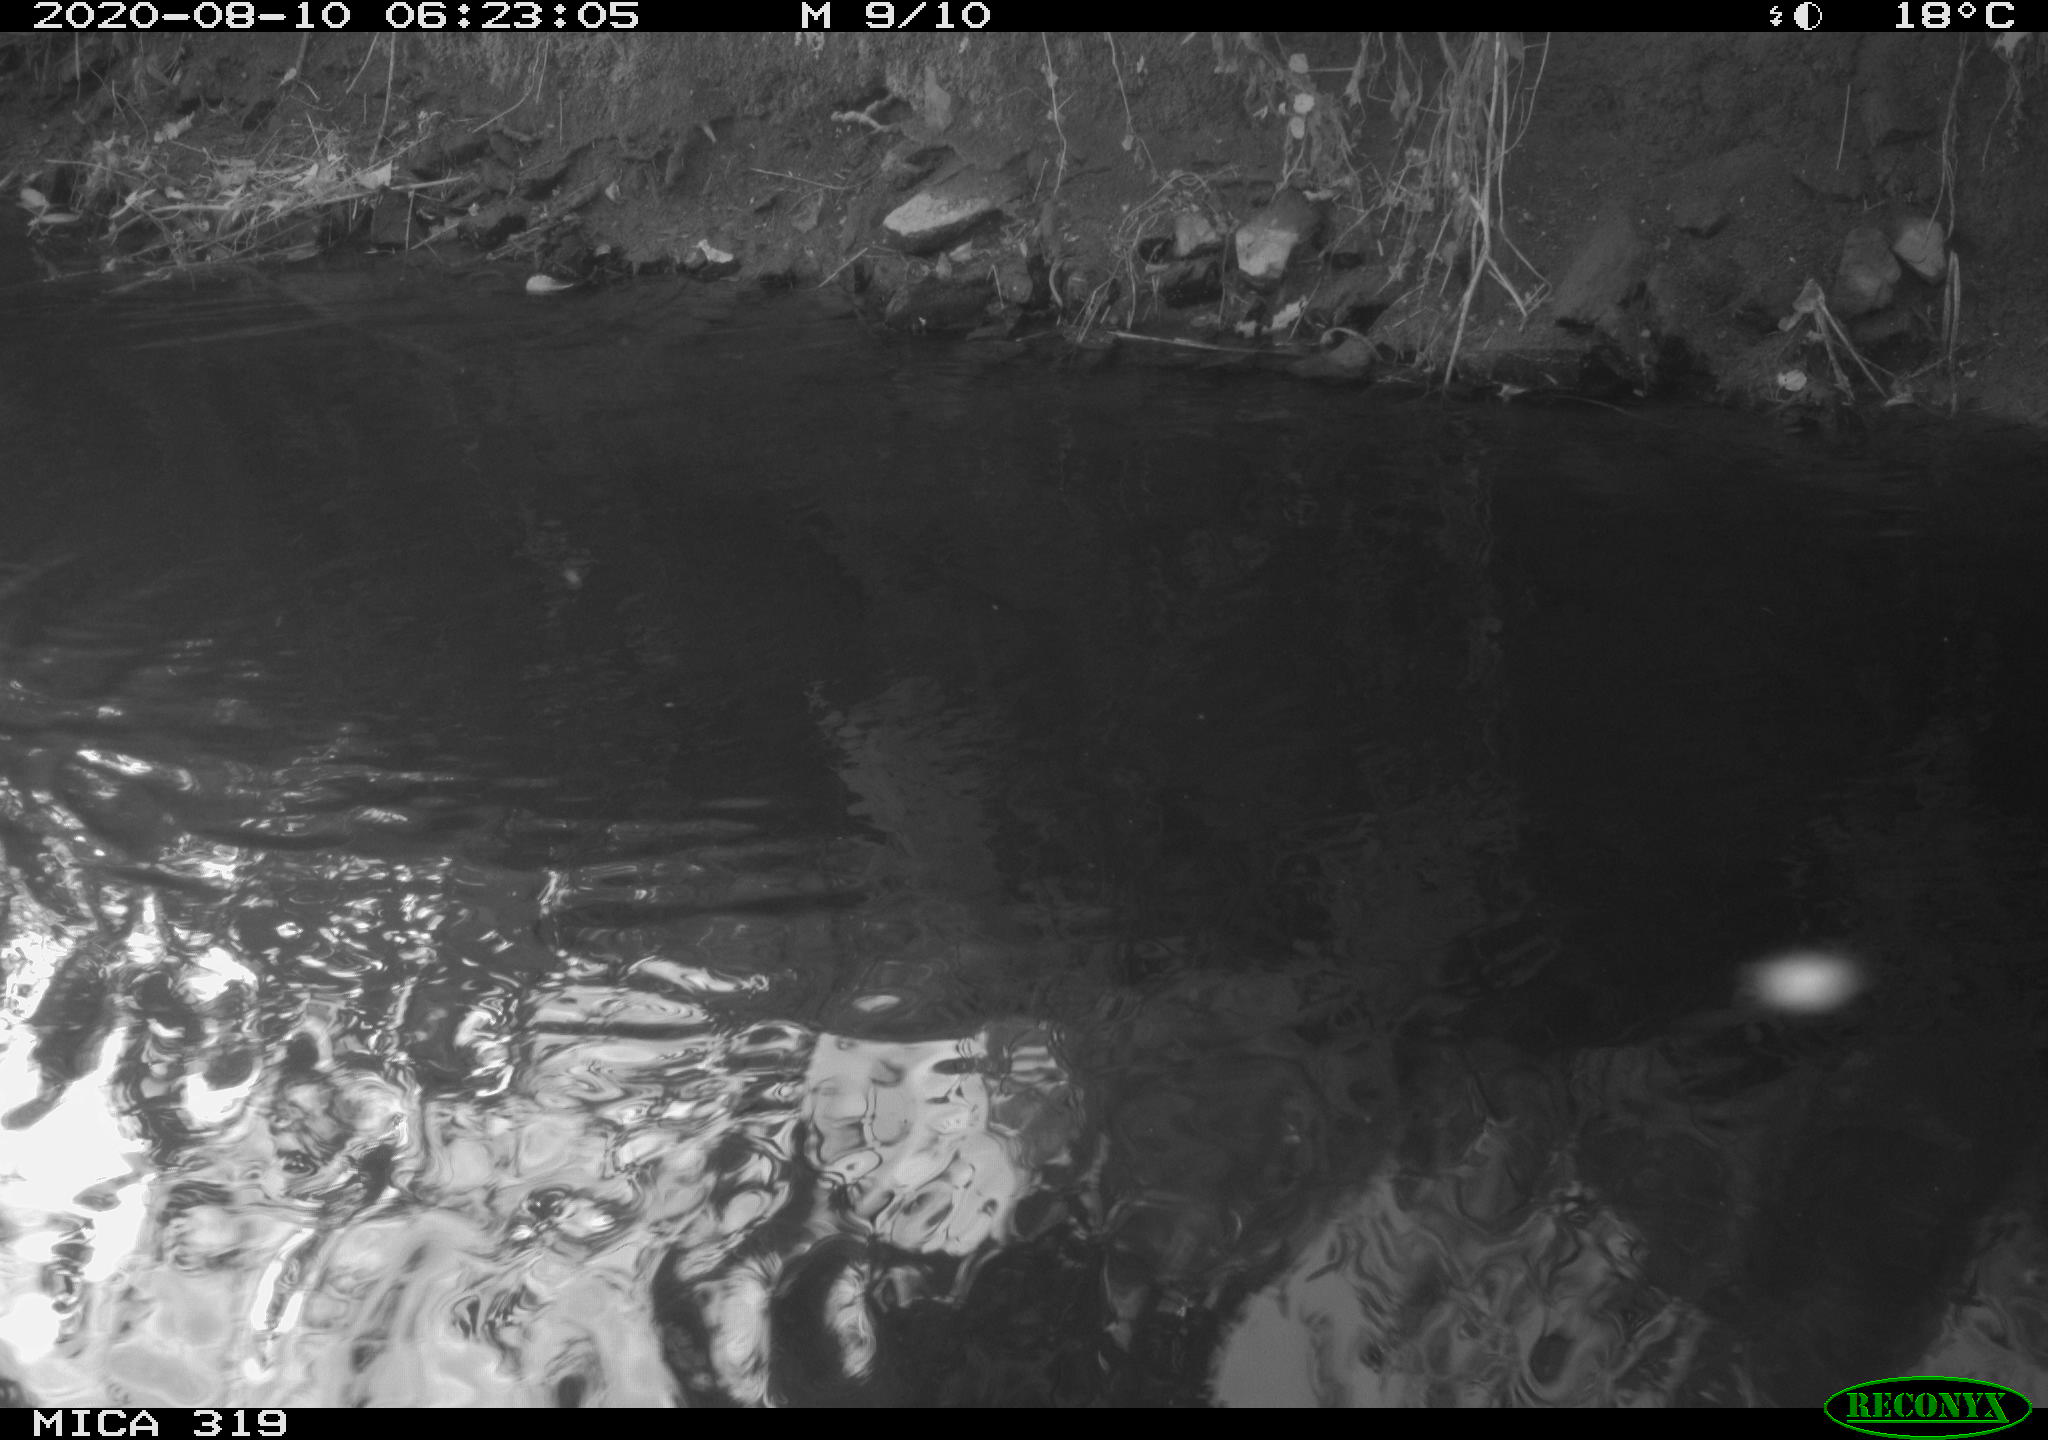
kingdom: Animalia
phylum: Chordata
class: Aves
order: Anseriformes
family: Anatidae
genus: Anas
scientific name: Anas platyrhynchos
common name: Mallard
